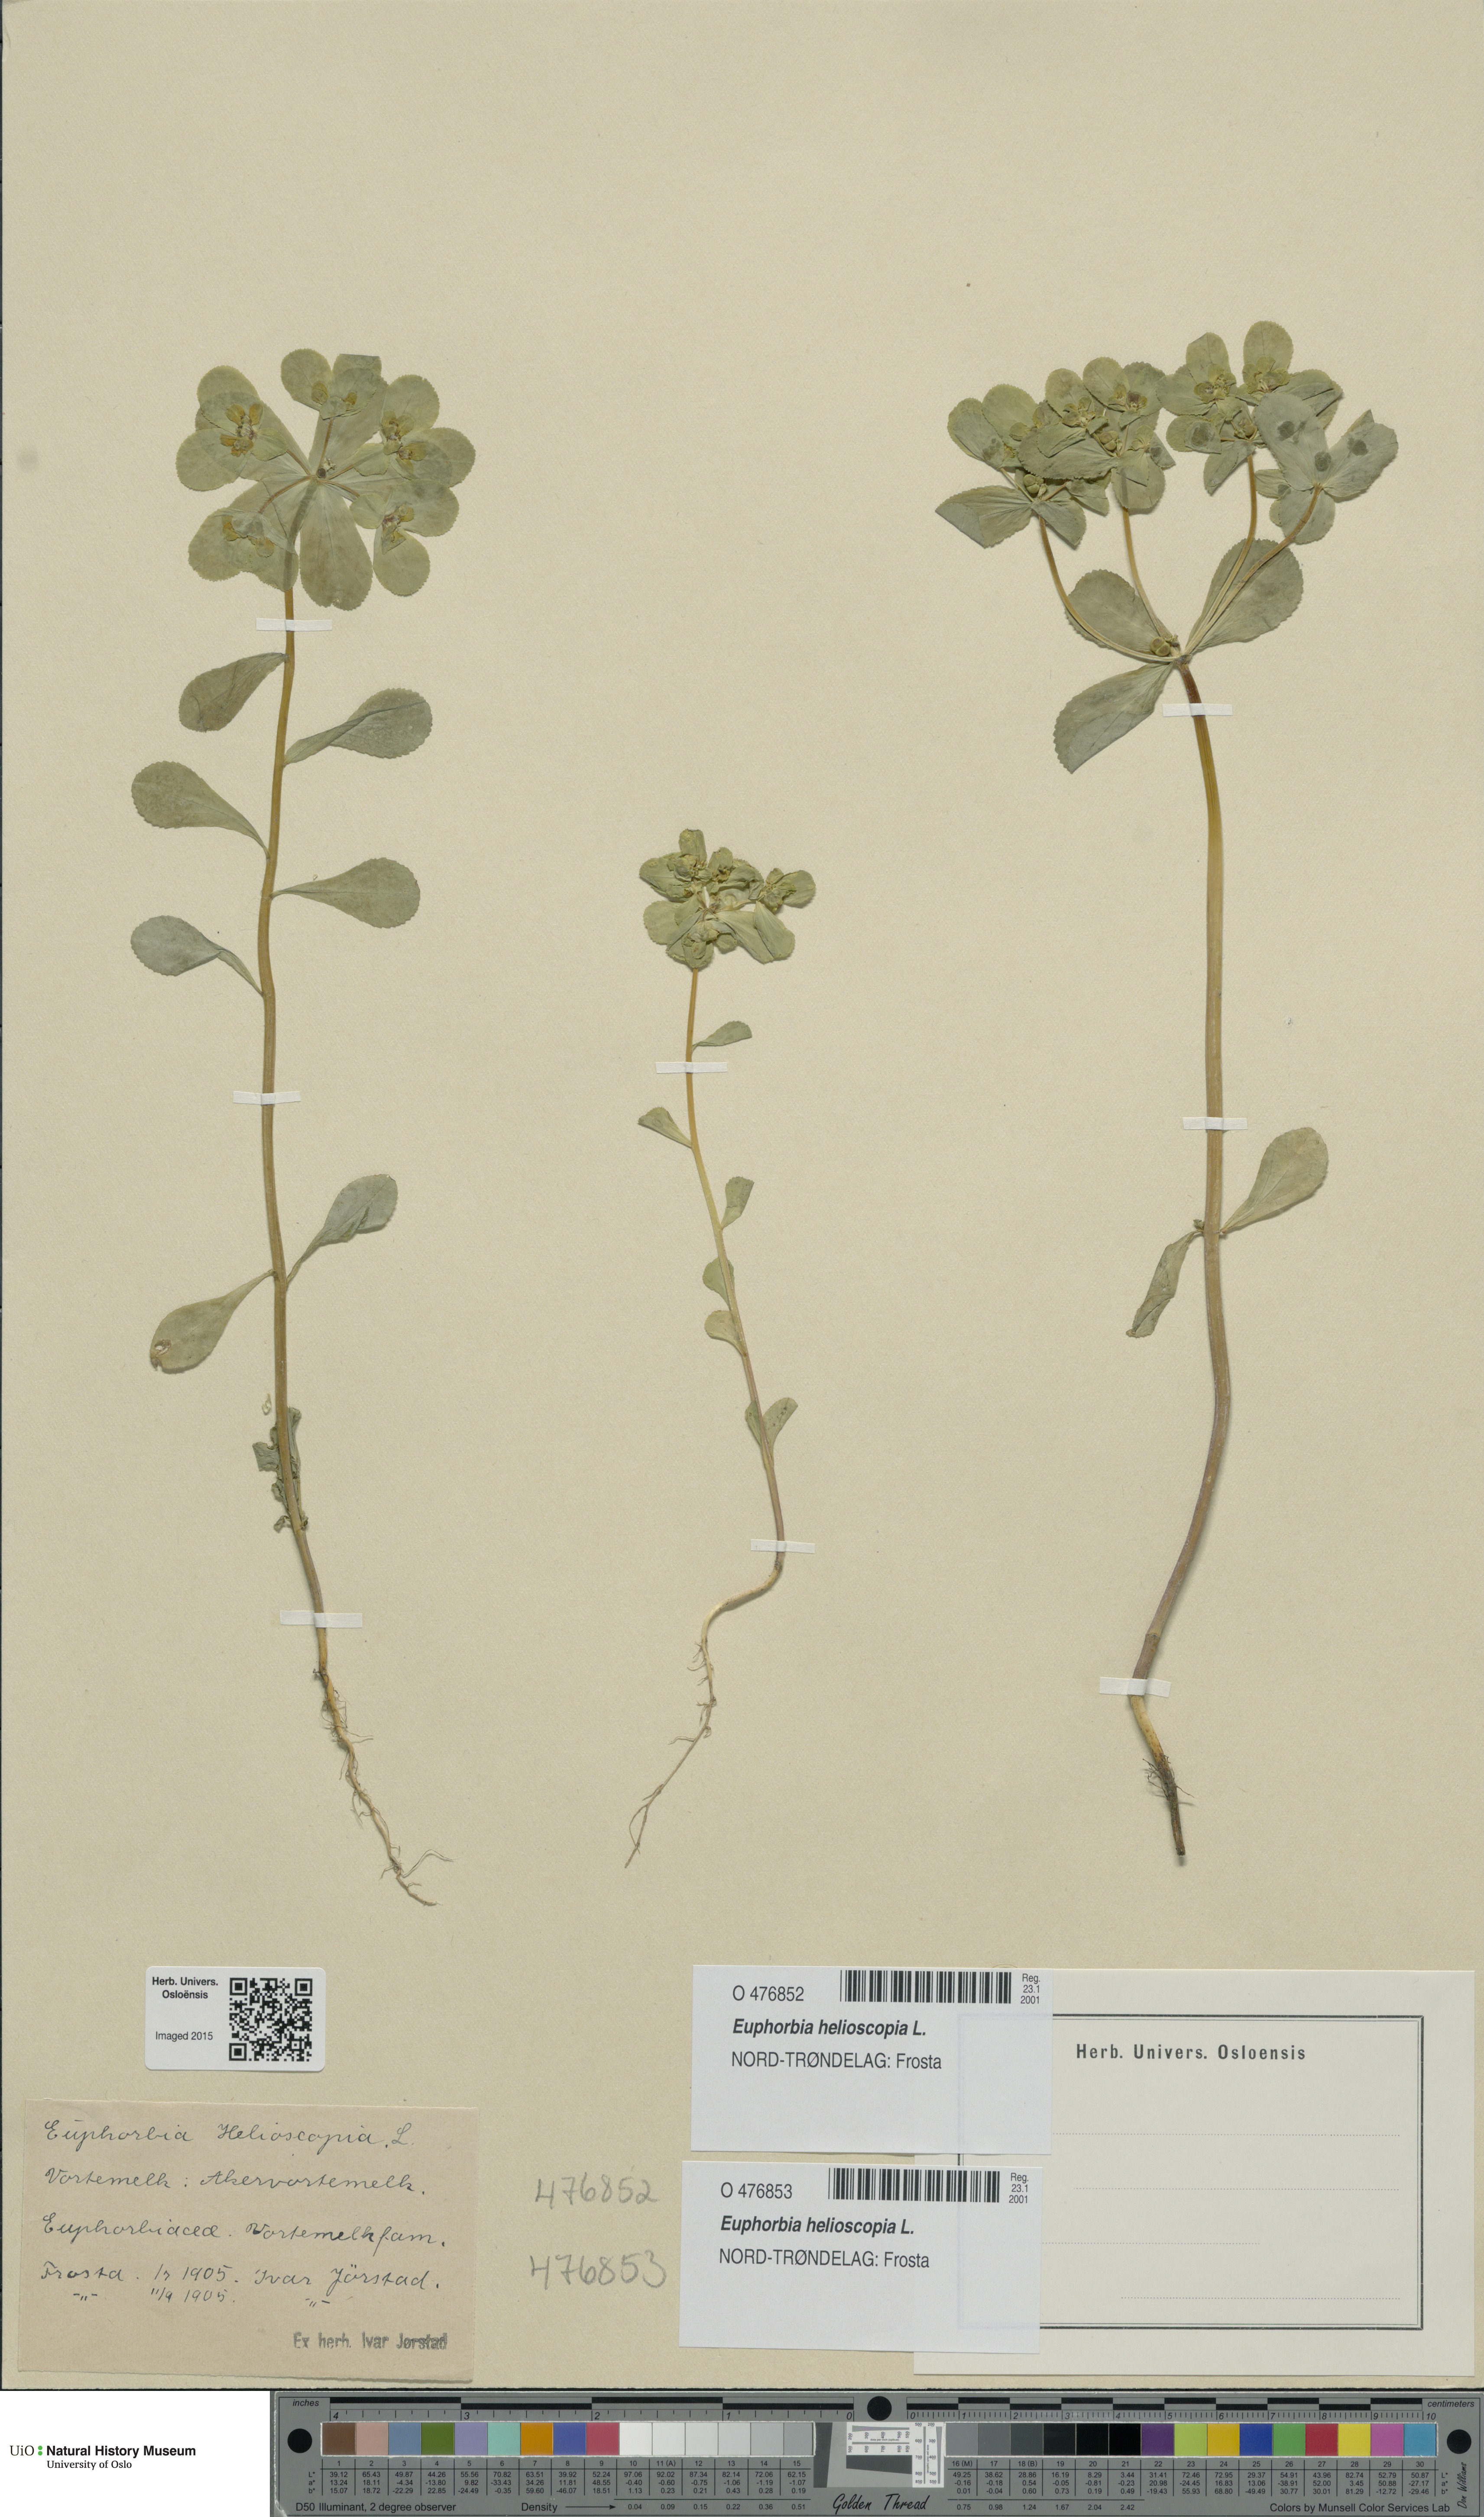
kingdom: Plantae
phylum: Tracheophyta
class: Magnoliopsida
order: Malpighiales
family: Euphorbiaceae
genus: Euphorbia
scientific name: Euphorbia helioscopia
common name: Sun spurge
